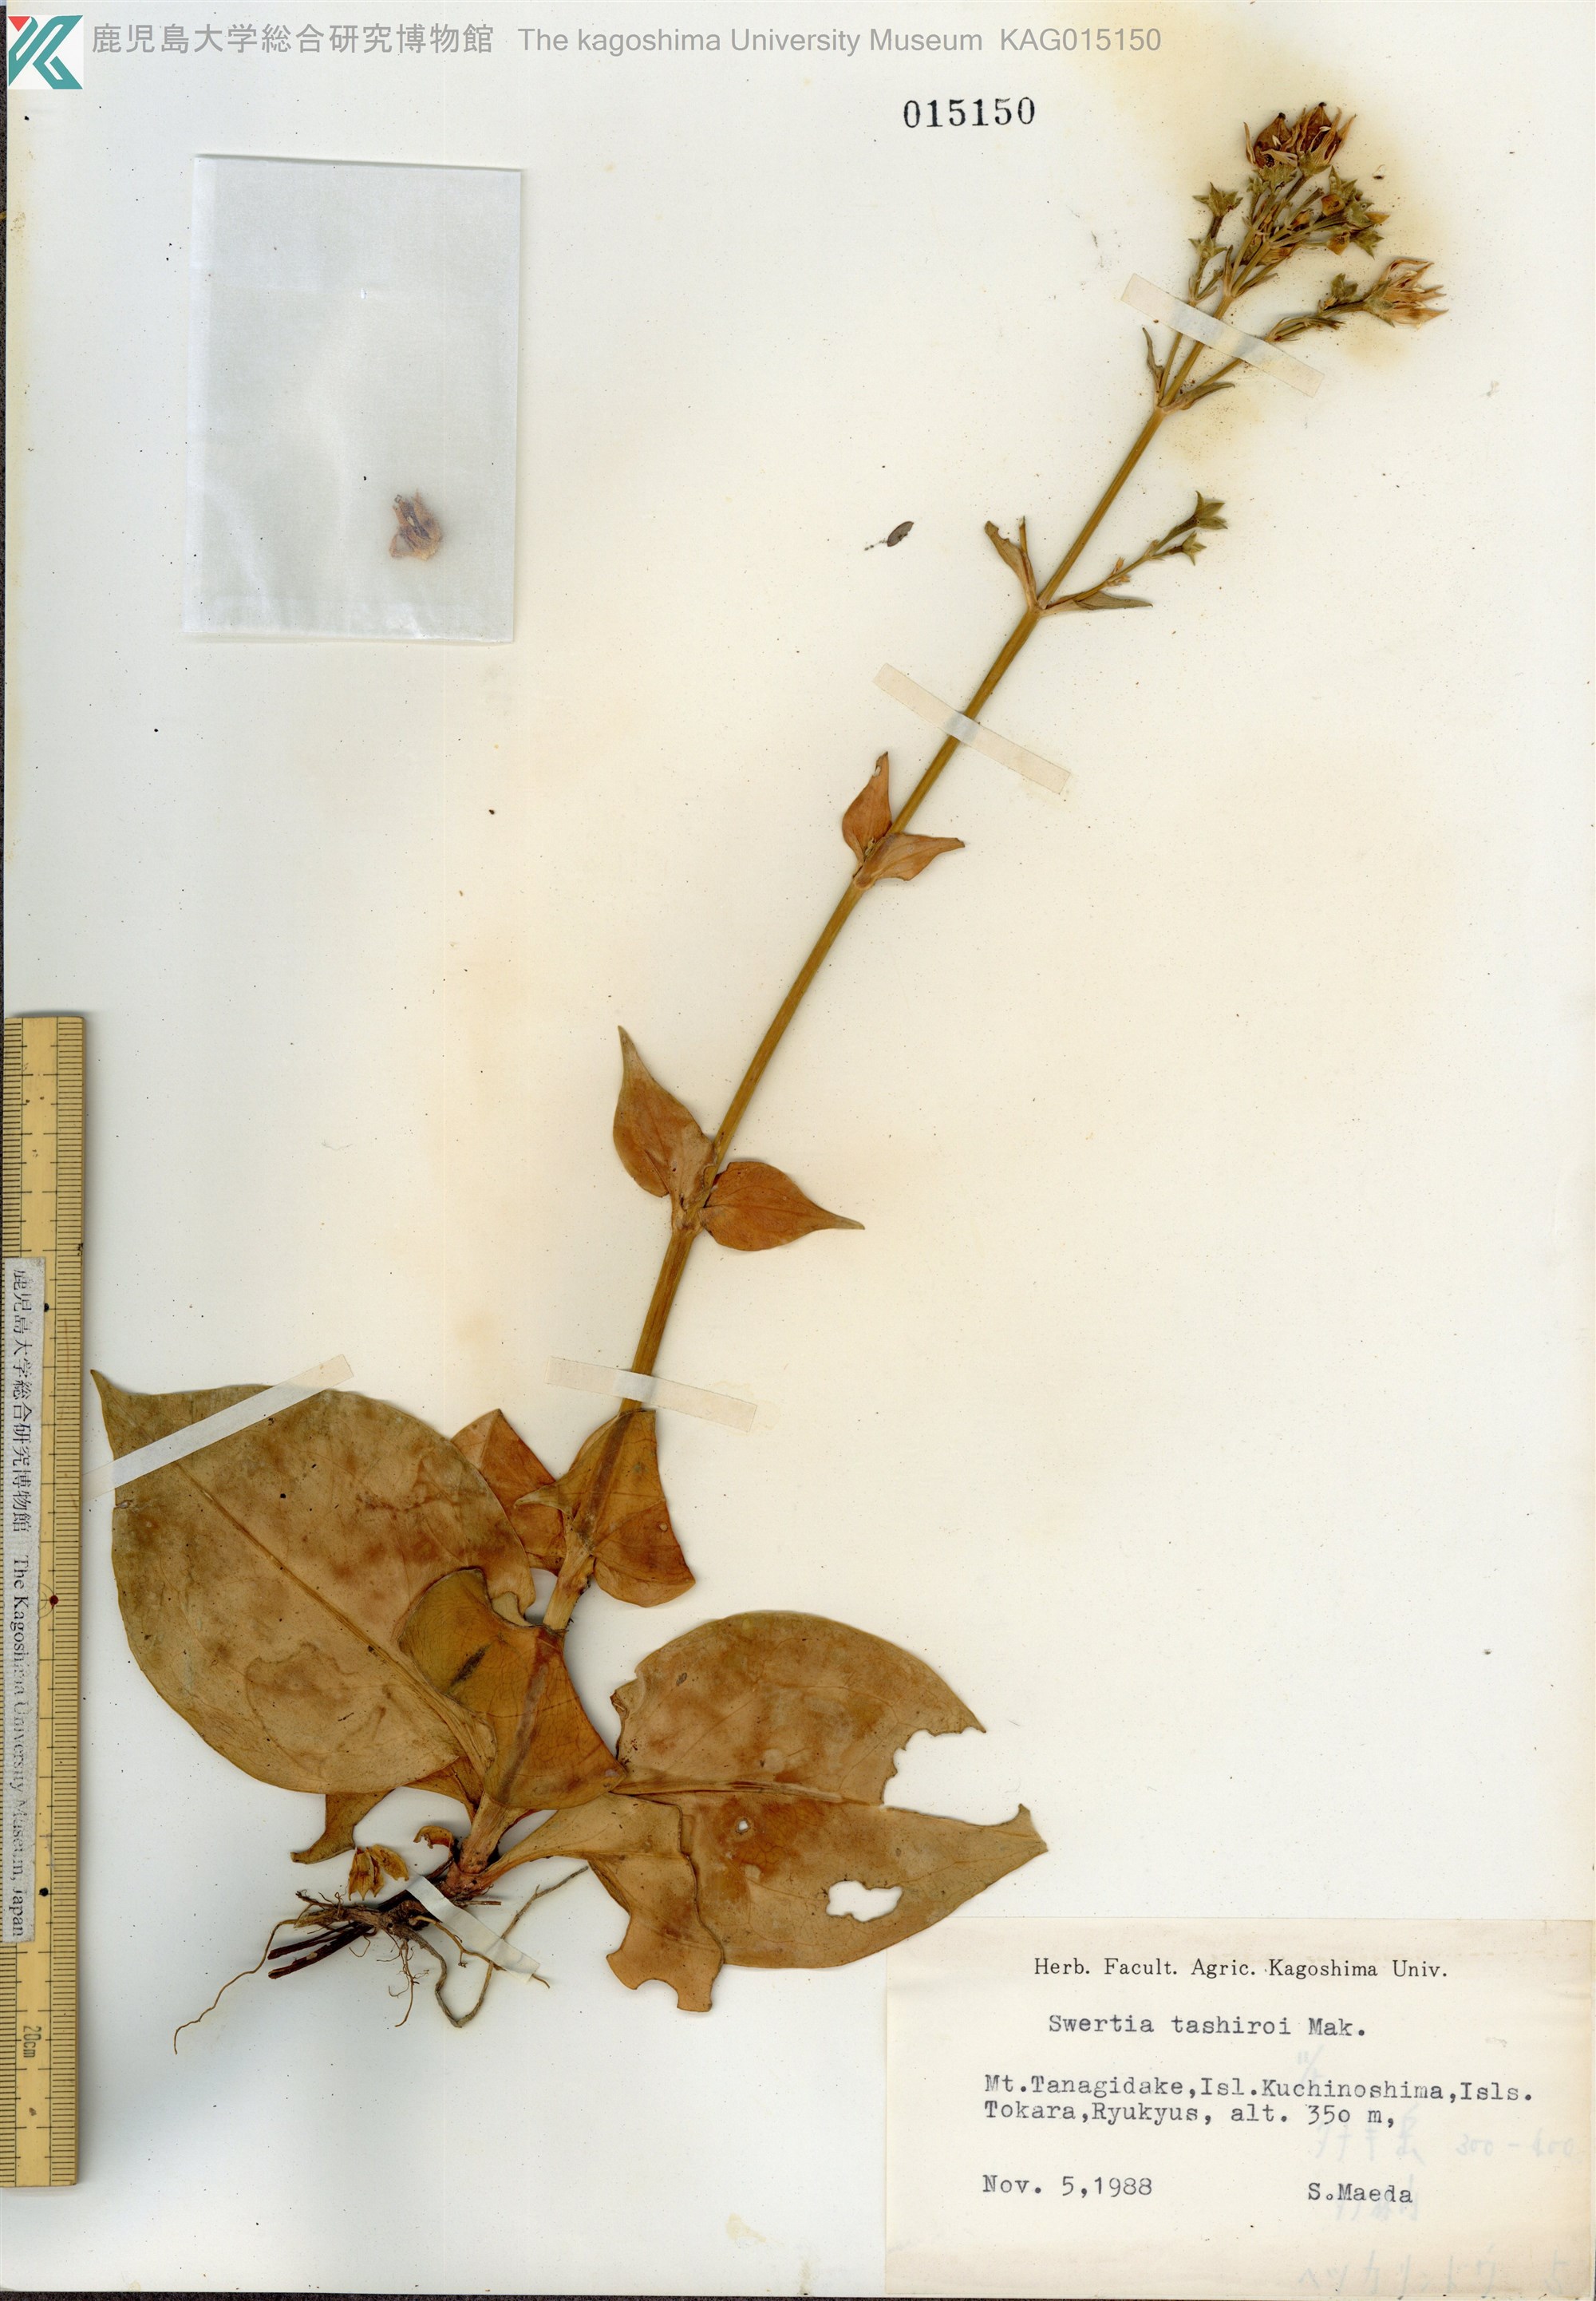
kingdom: Plantae
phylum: Tracheophyta
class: Magnoliopsida
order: Gentianales
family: Gentianaceae
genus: Swertia
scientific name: Swertia tashiroi
